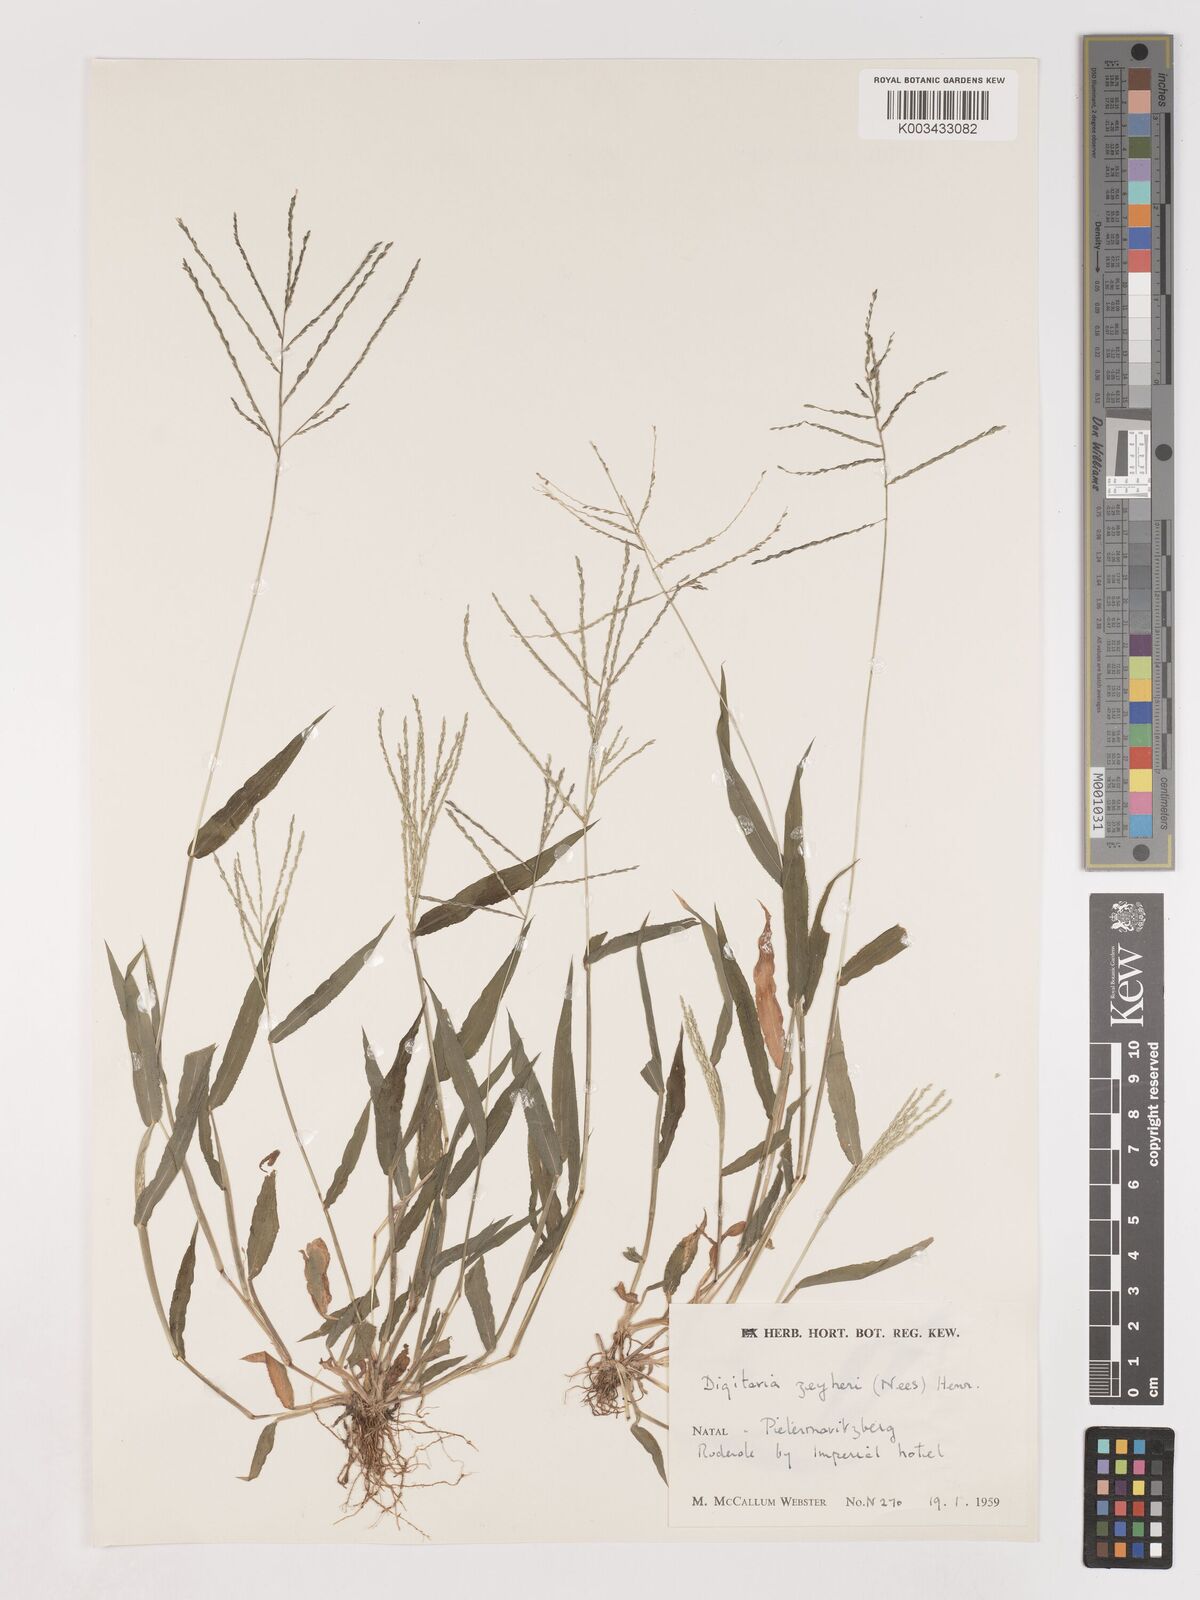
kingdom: Plantae
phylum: Tracheophyta
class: Liliopsida
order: Poales
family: Poaceae
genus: Digitaria
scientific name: Digitaria velutina
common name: Long-plume finger grass
